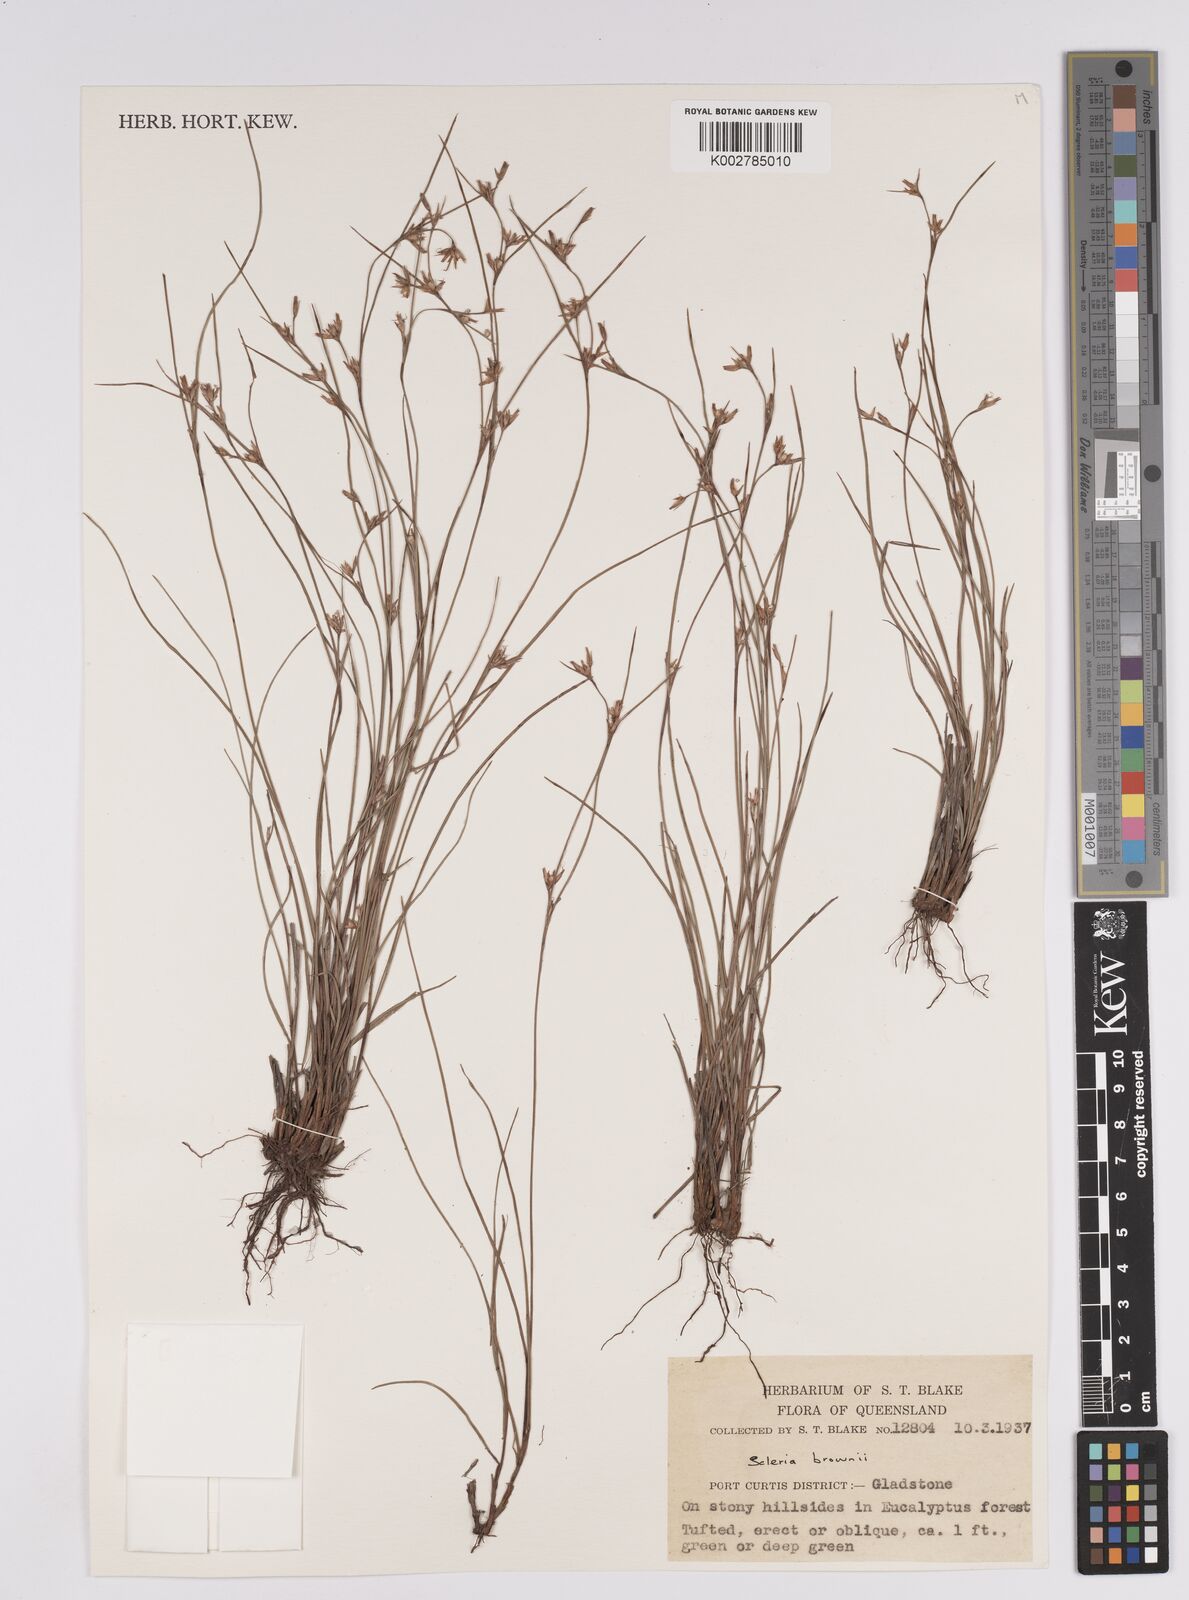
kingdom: Plantae
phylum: Tracheophyta
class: Liliopsida
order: Poales
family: Cyperaceae
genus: Scleria
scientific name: Scleria brownii
